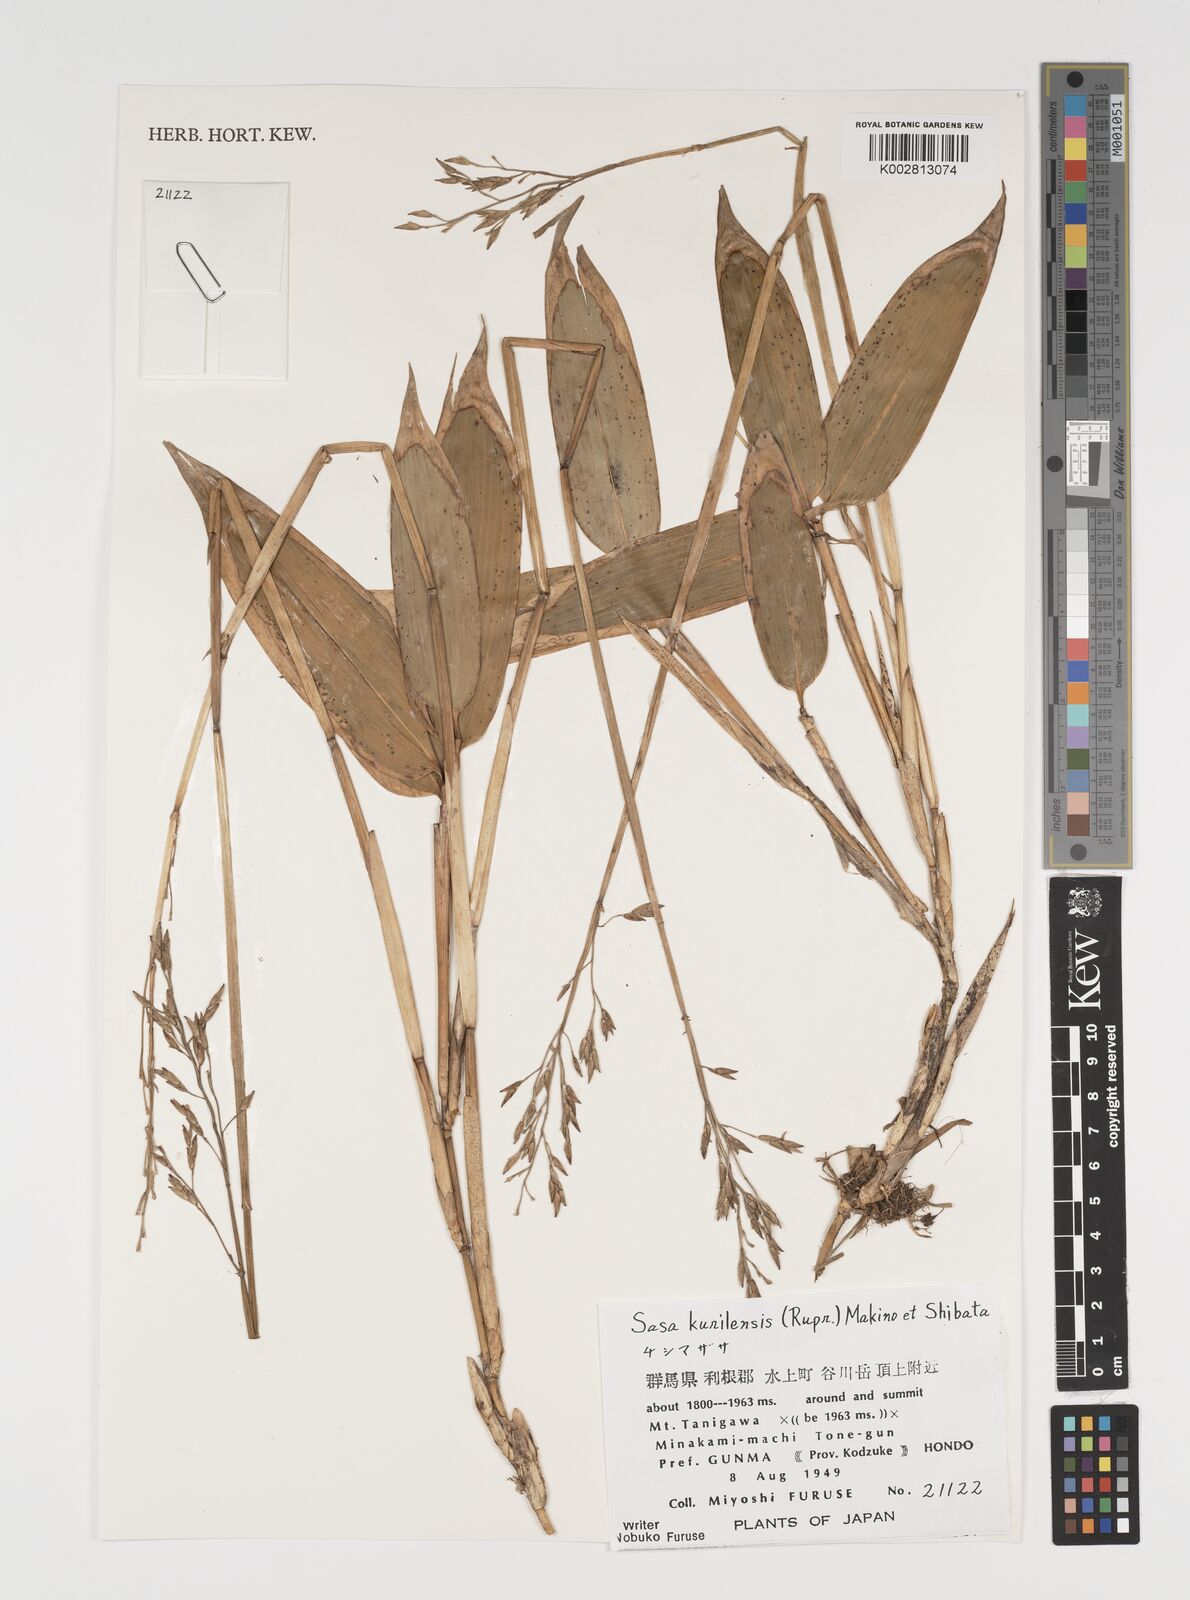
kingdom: Plantae
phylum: Tracheophyta
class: Liliopsida
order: Poales
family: Poaceae
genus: Sasa
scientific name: Sasa kurilensis
